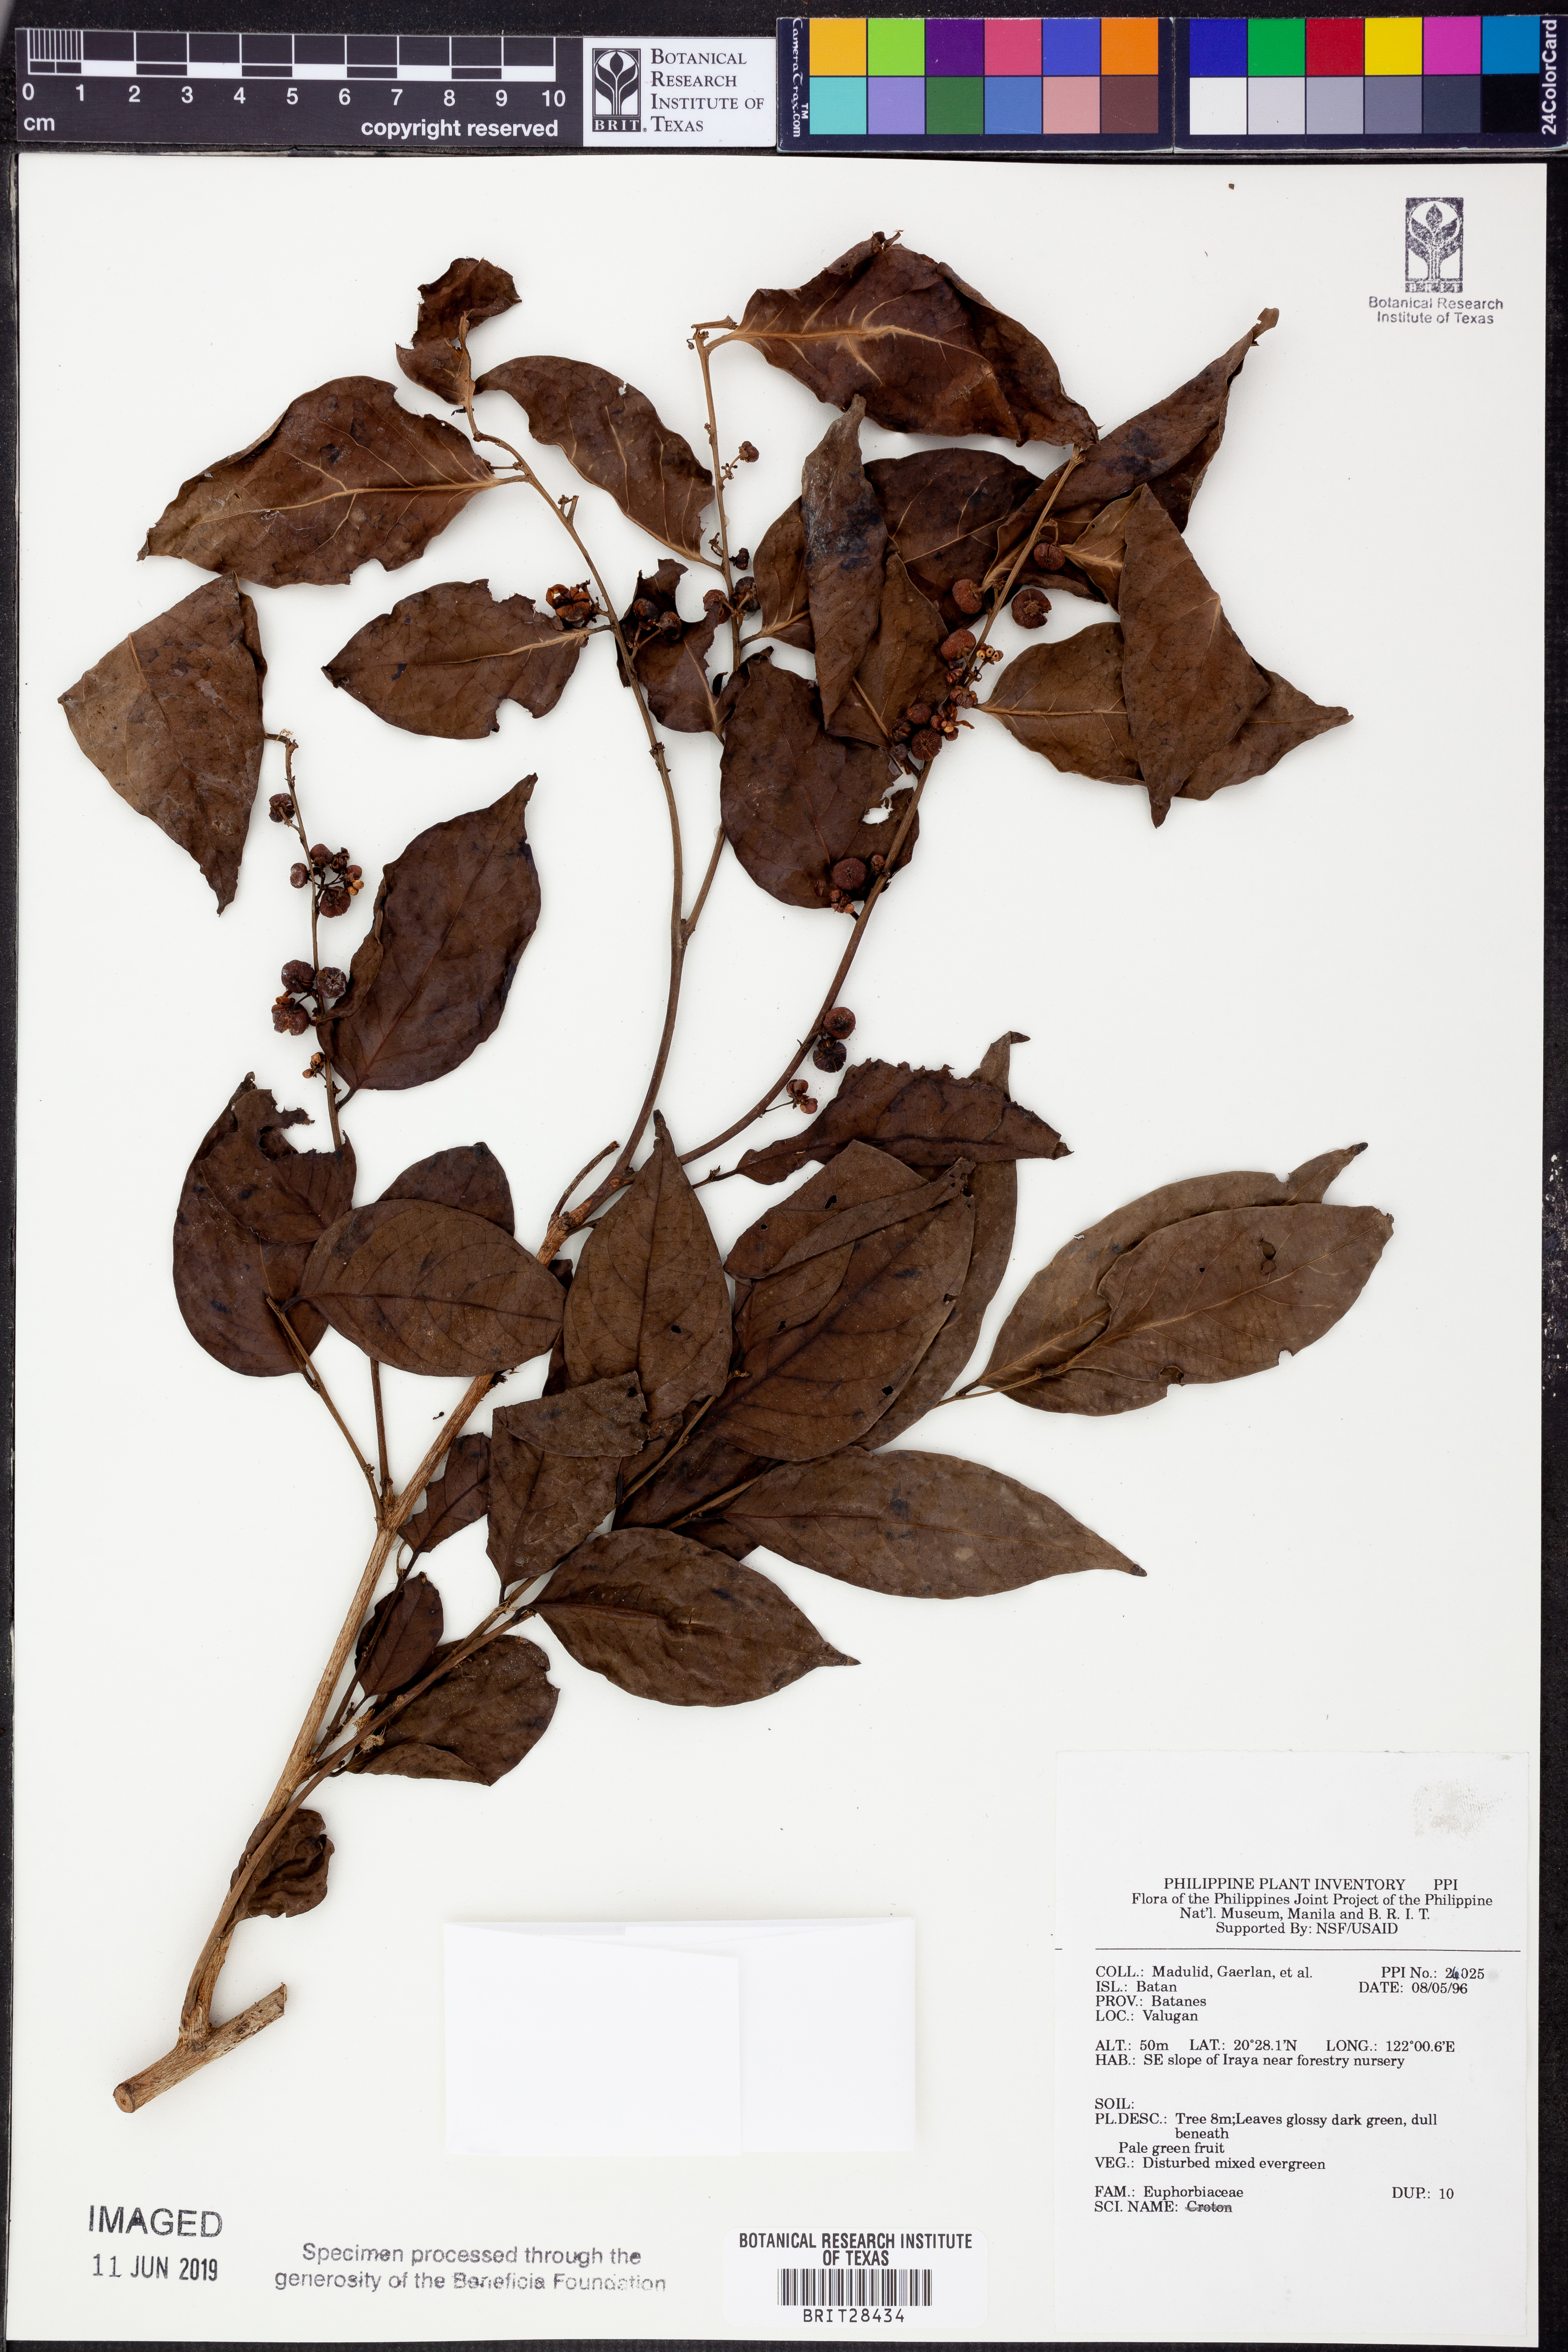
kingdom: Plantae
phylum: Tracheophyta
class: Magnoliopsida
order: Malpighiales
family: Euphorbiaceae
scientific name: Euphorbiaceae
